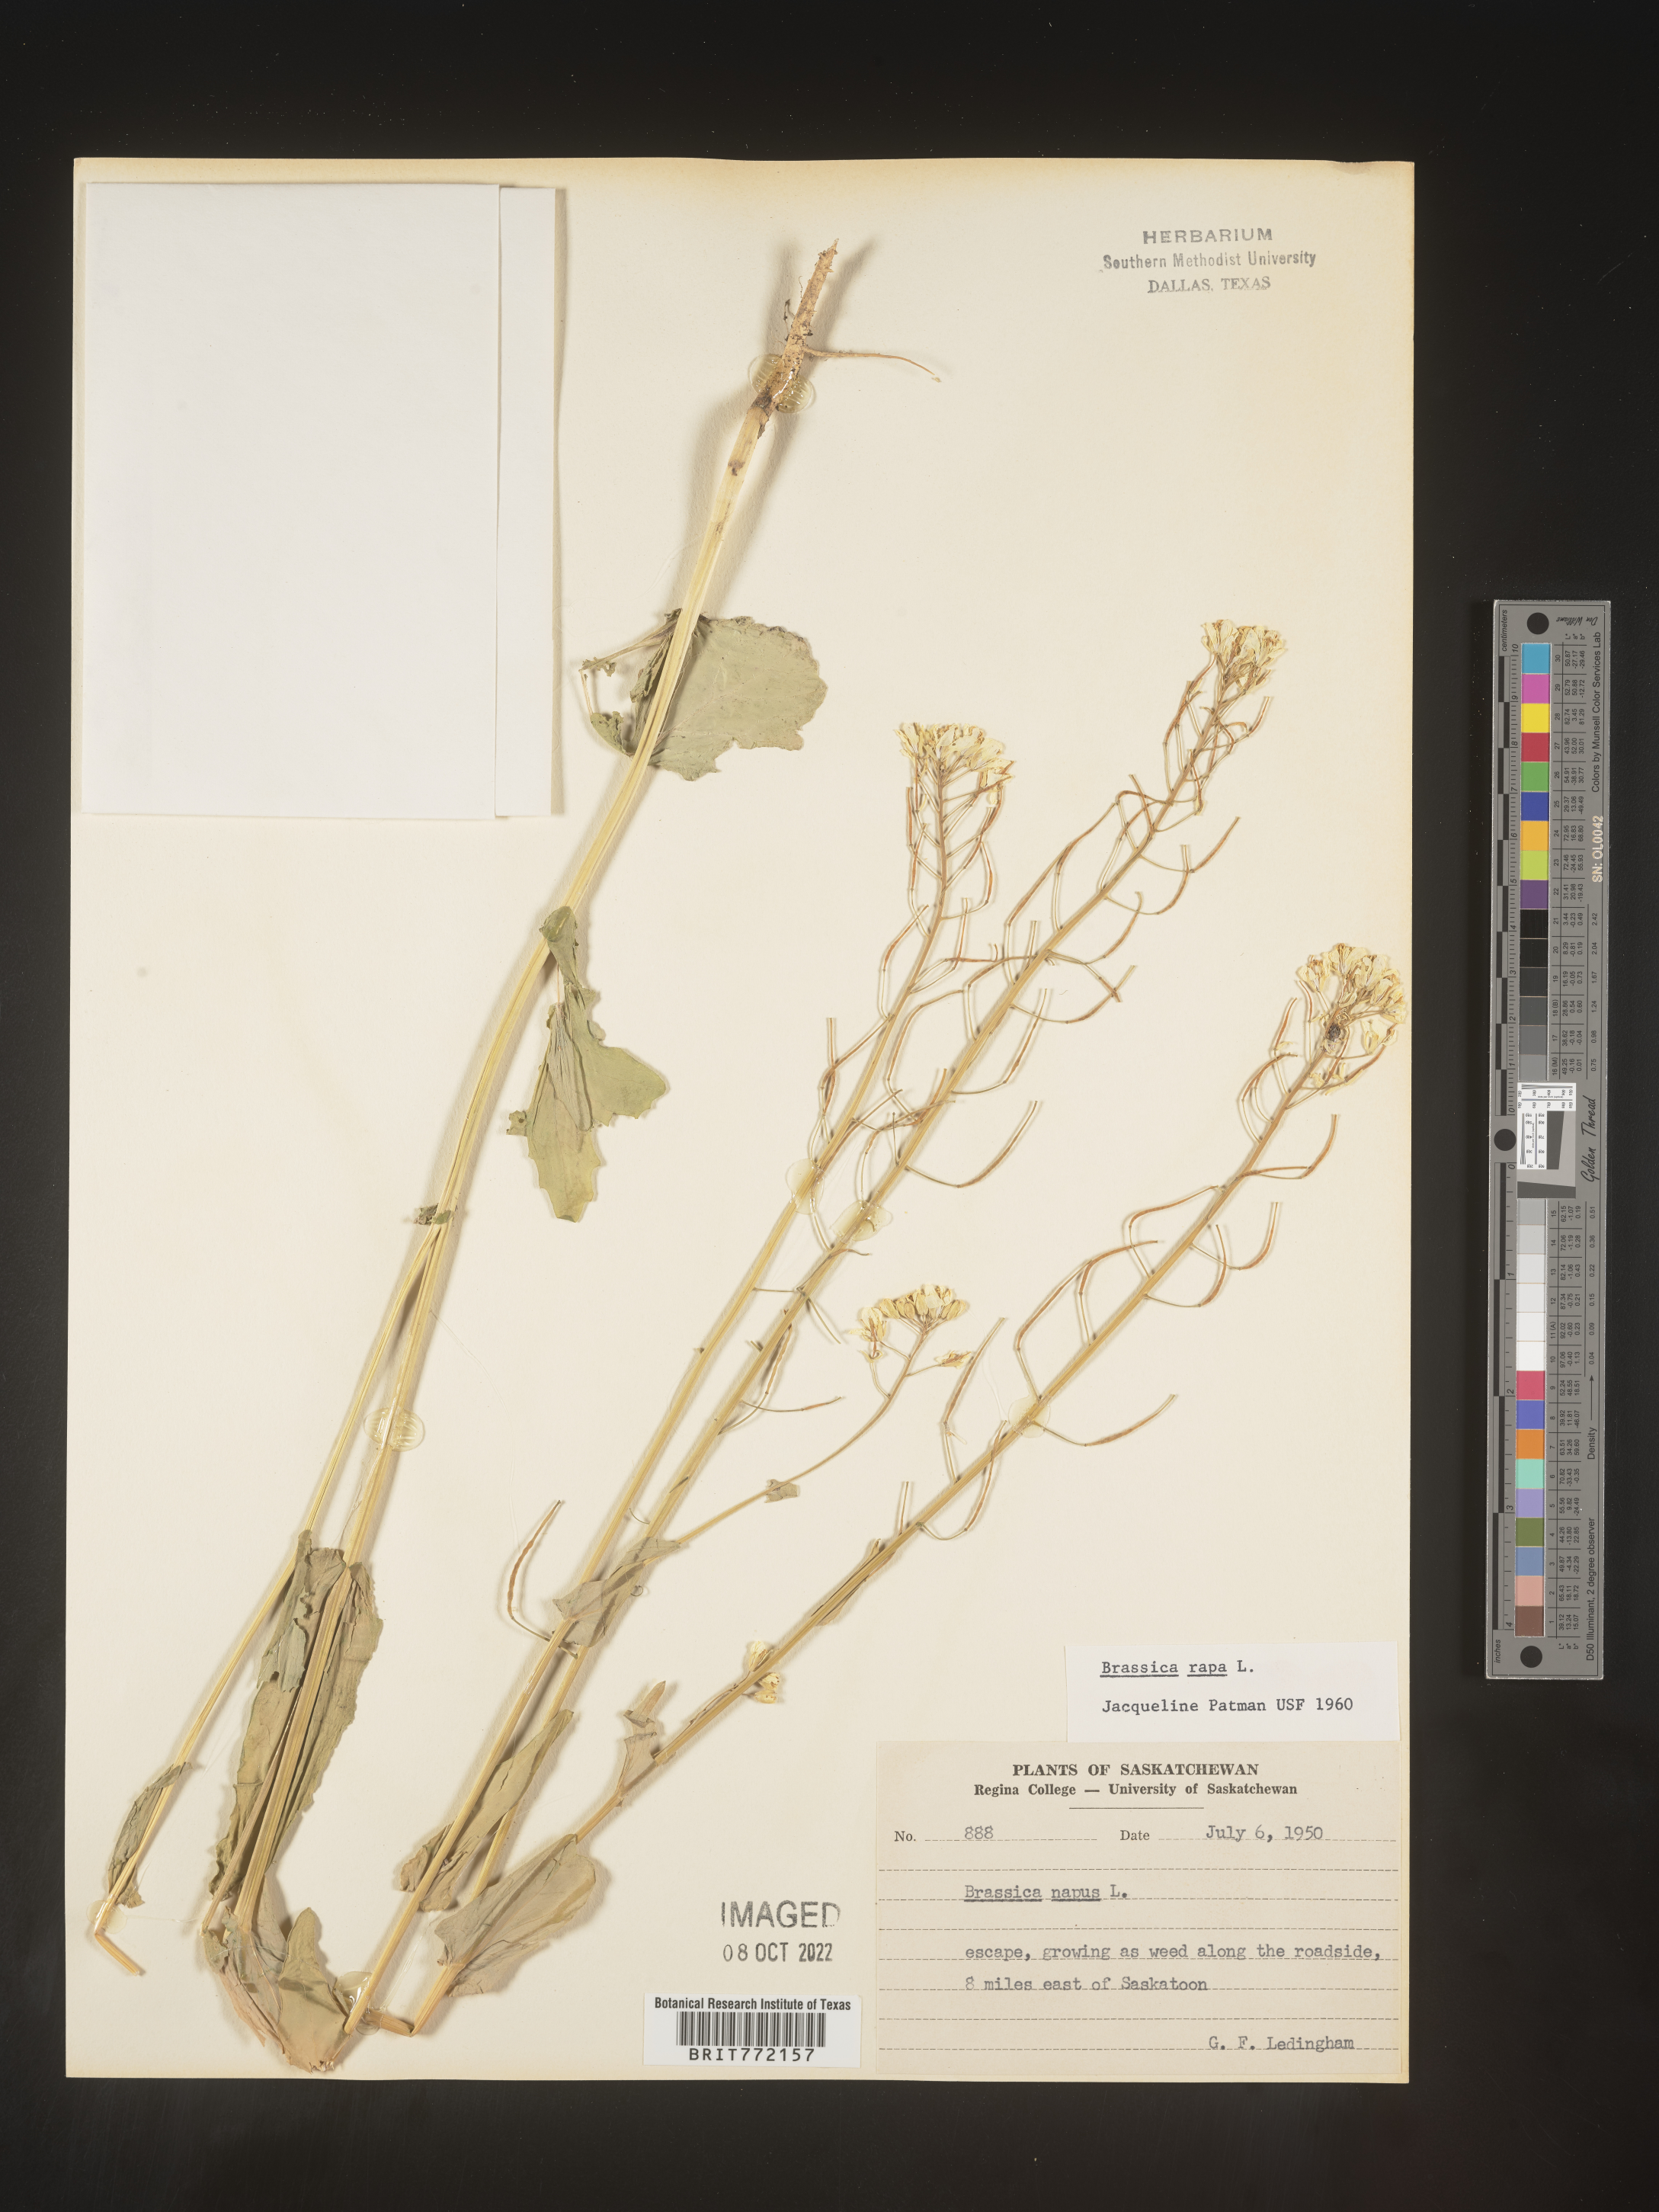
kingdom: Plantae
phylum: Tracheophyta
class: Magnoliopsida
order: Brassicales
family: Brassicaceae
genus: Brassica
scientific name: Brassica rapa
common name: Field mustard
